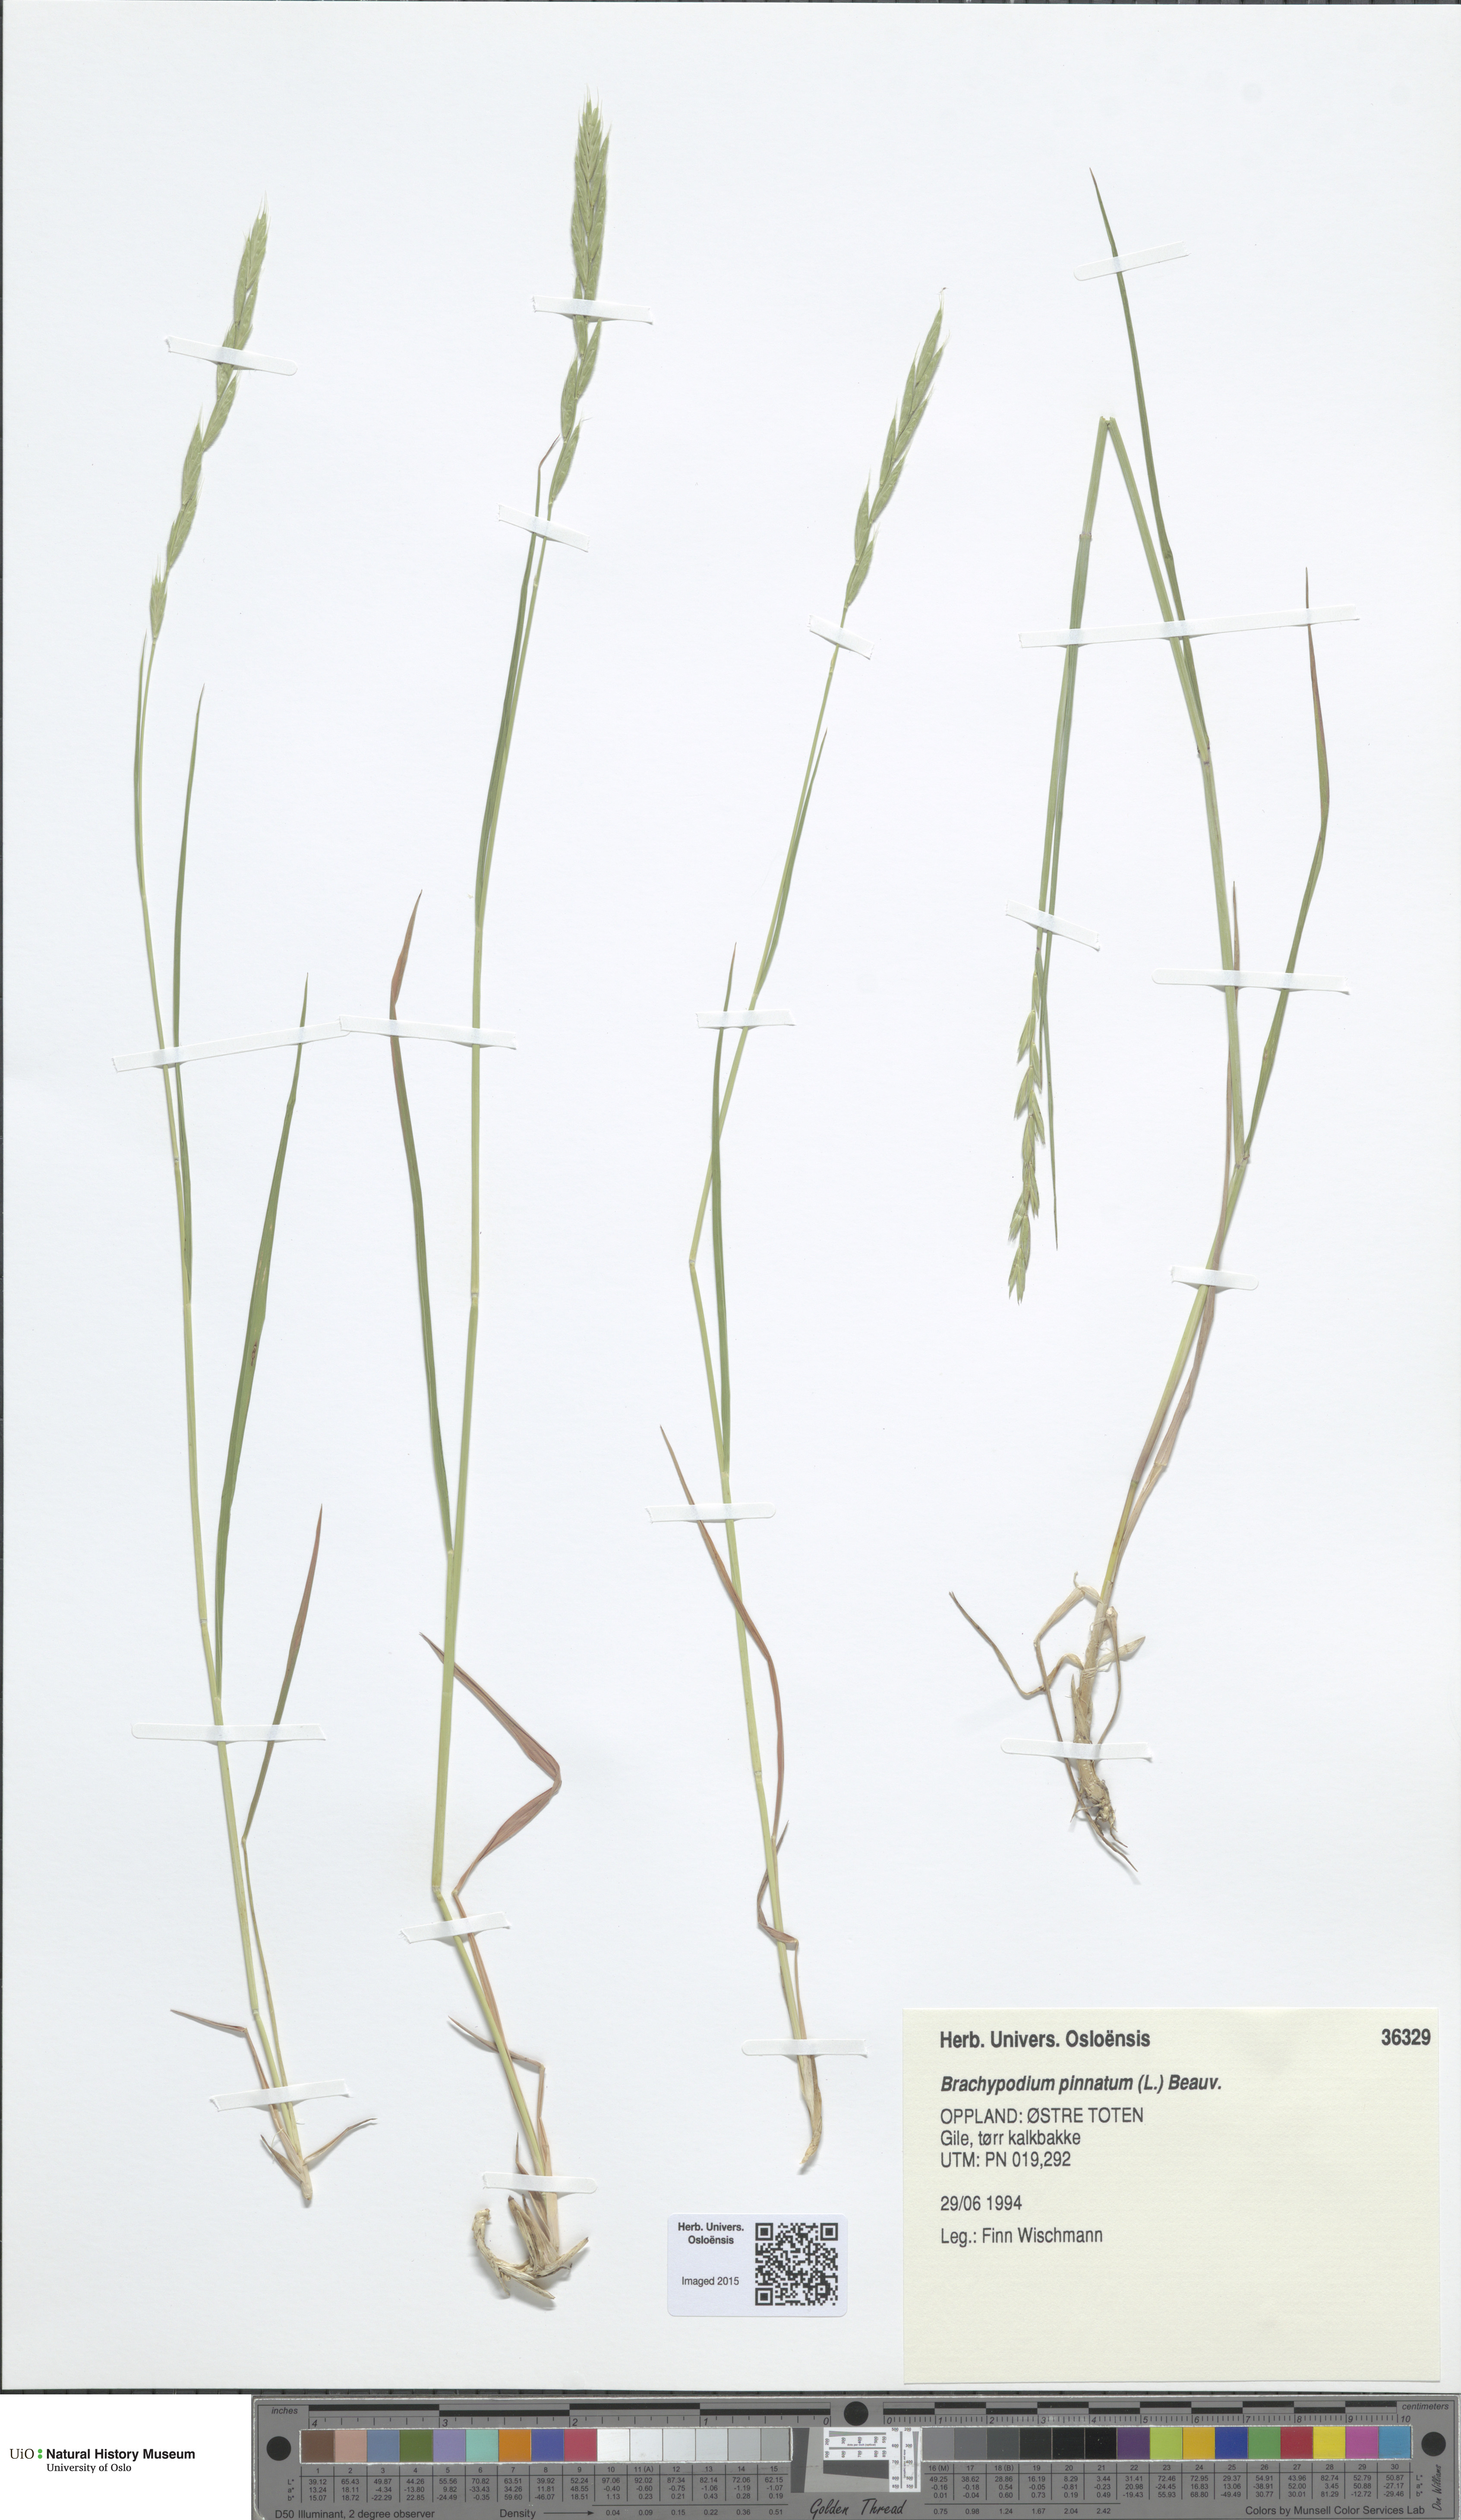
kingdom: Plantae
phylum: Tracheophyta
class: Liliopsida
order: Poales
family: Poaceae
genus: Brachypodium
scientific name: Brachypodium pinnatum
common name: Tor grass
